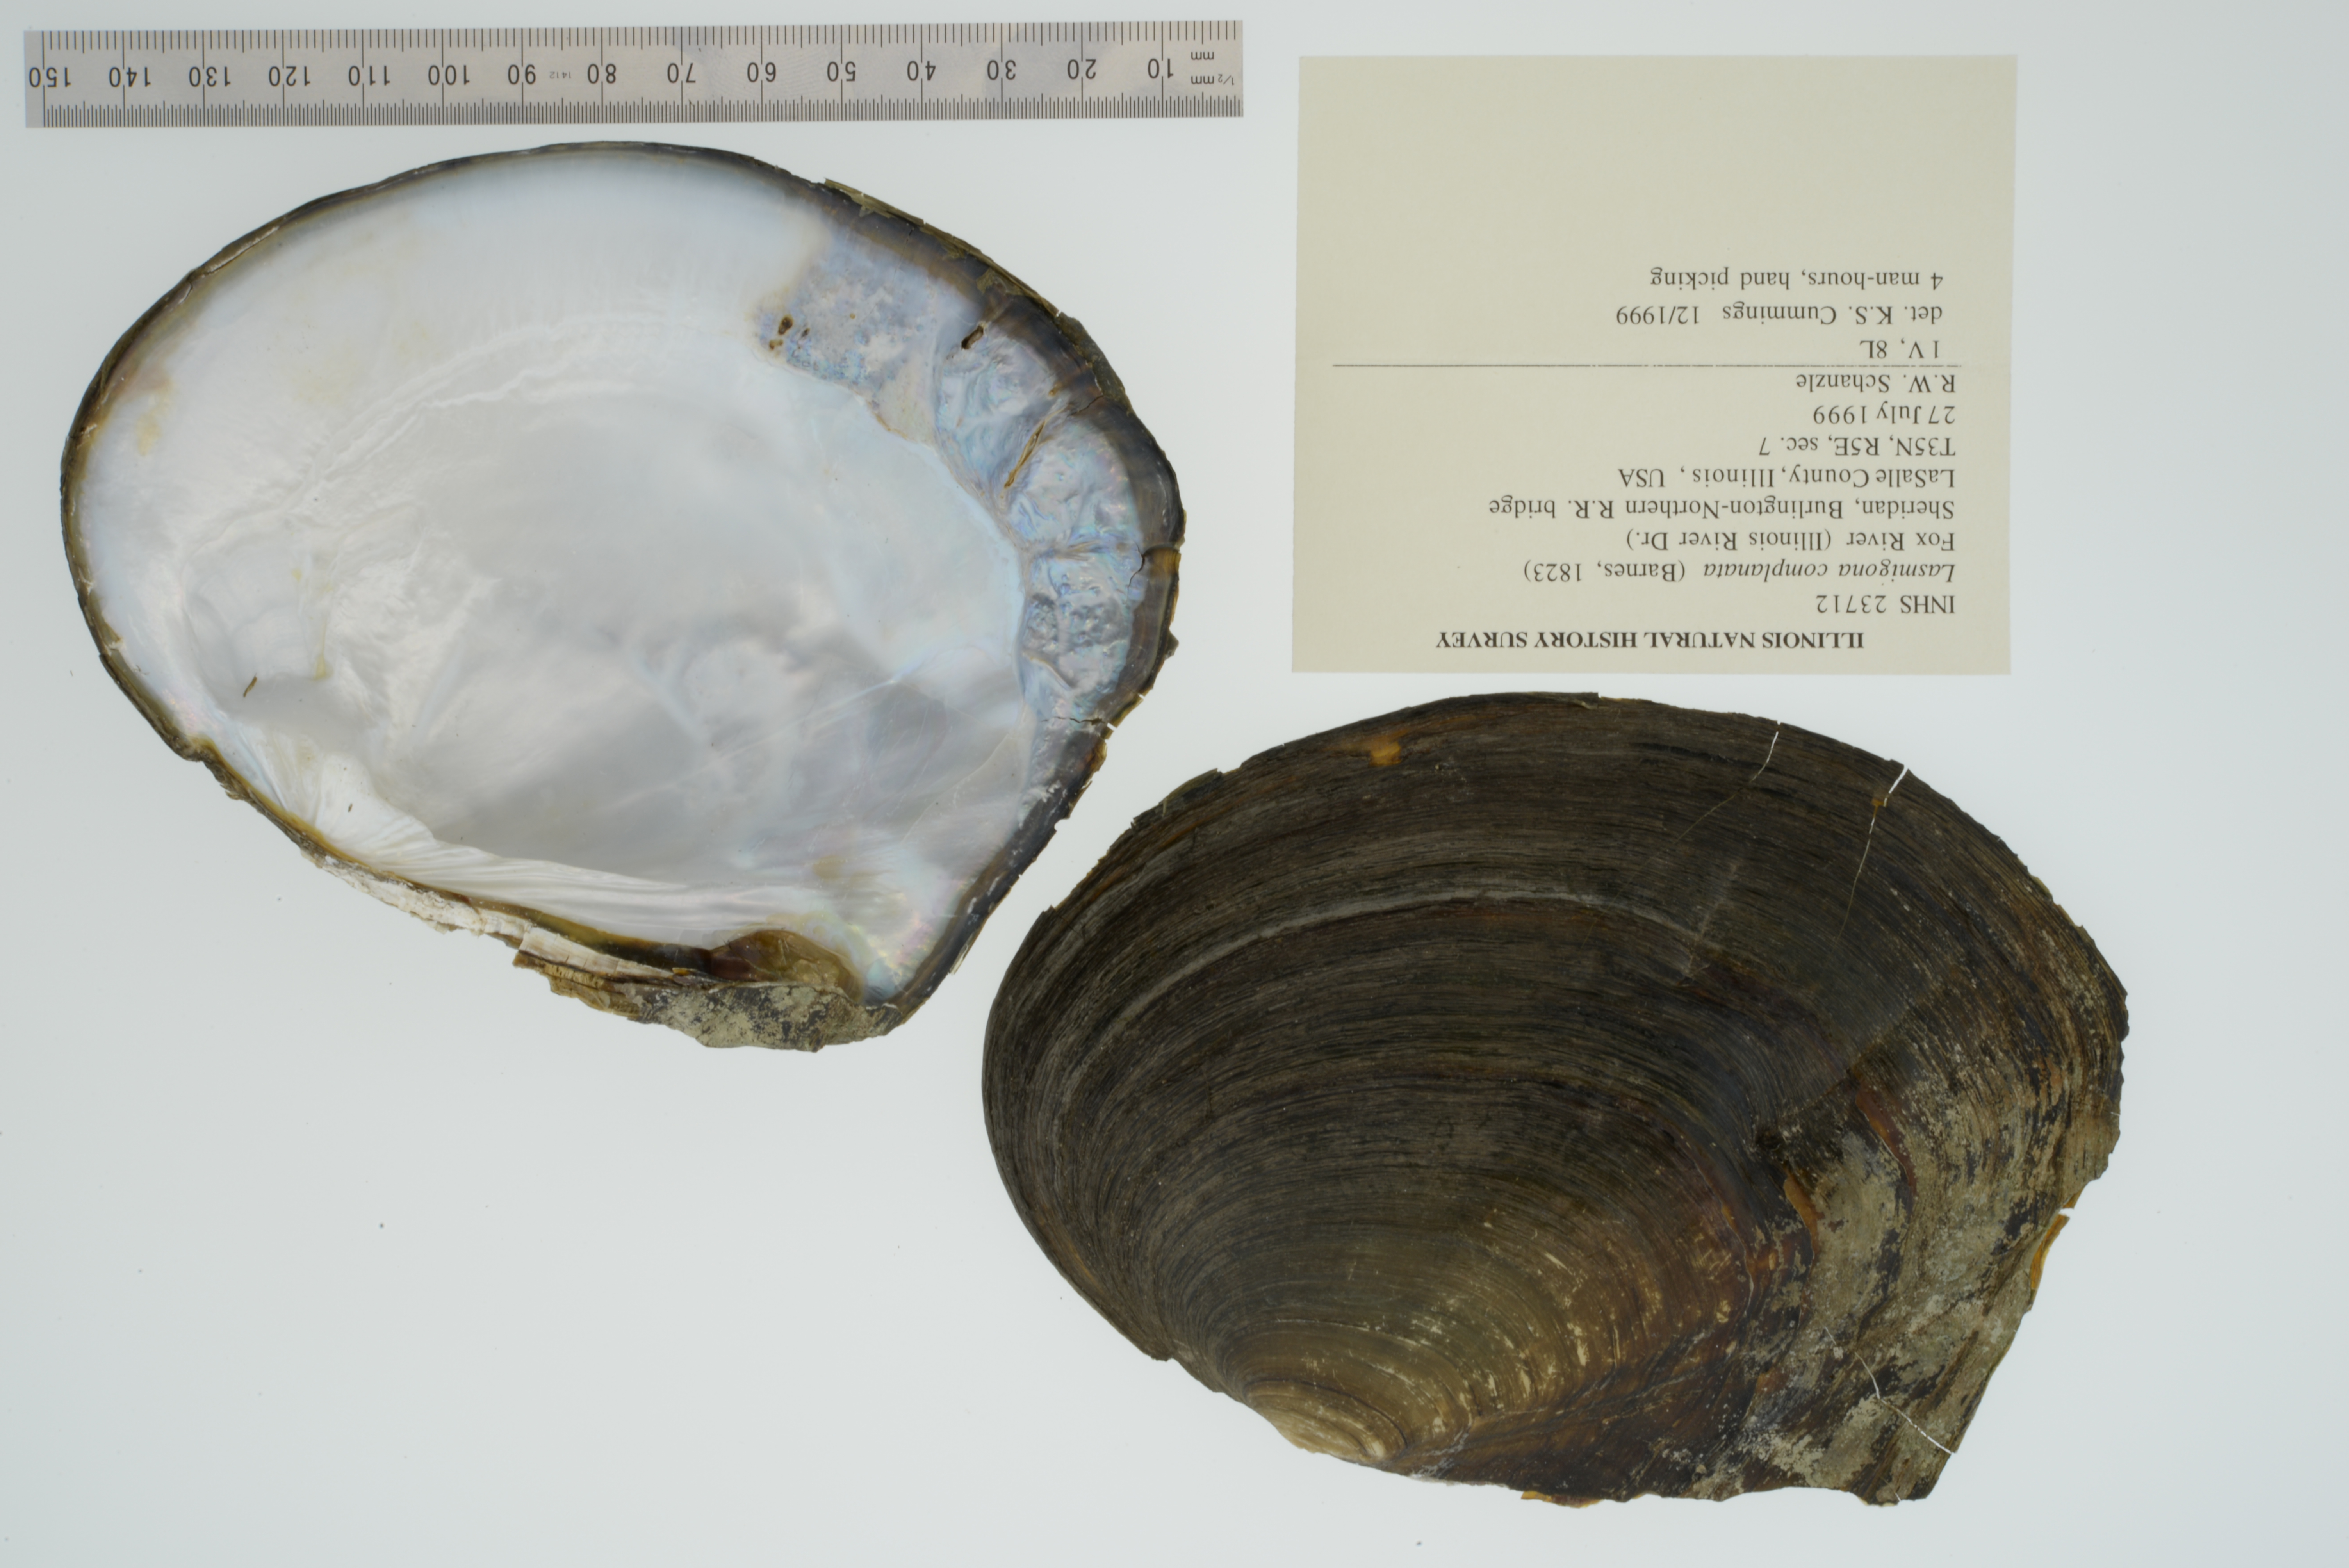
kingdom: Animalia
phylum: Mollusca
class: Bivalvia
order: Unionida
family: Unionidae
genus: Lasmigona
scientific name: Lasmigona complanata
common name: White heelsplitter
